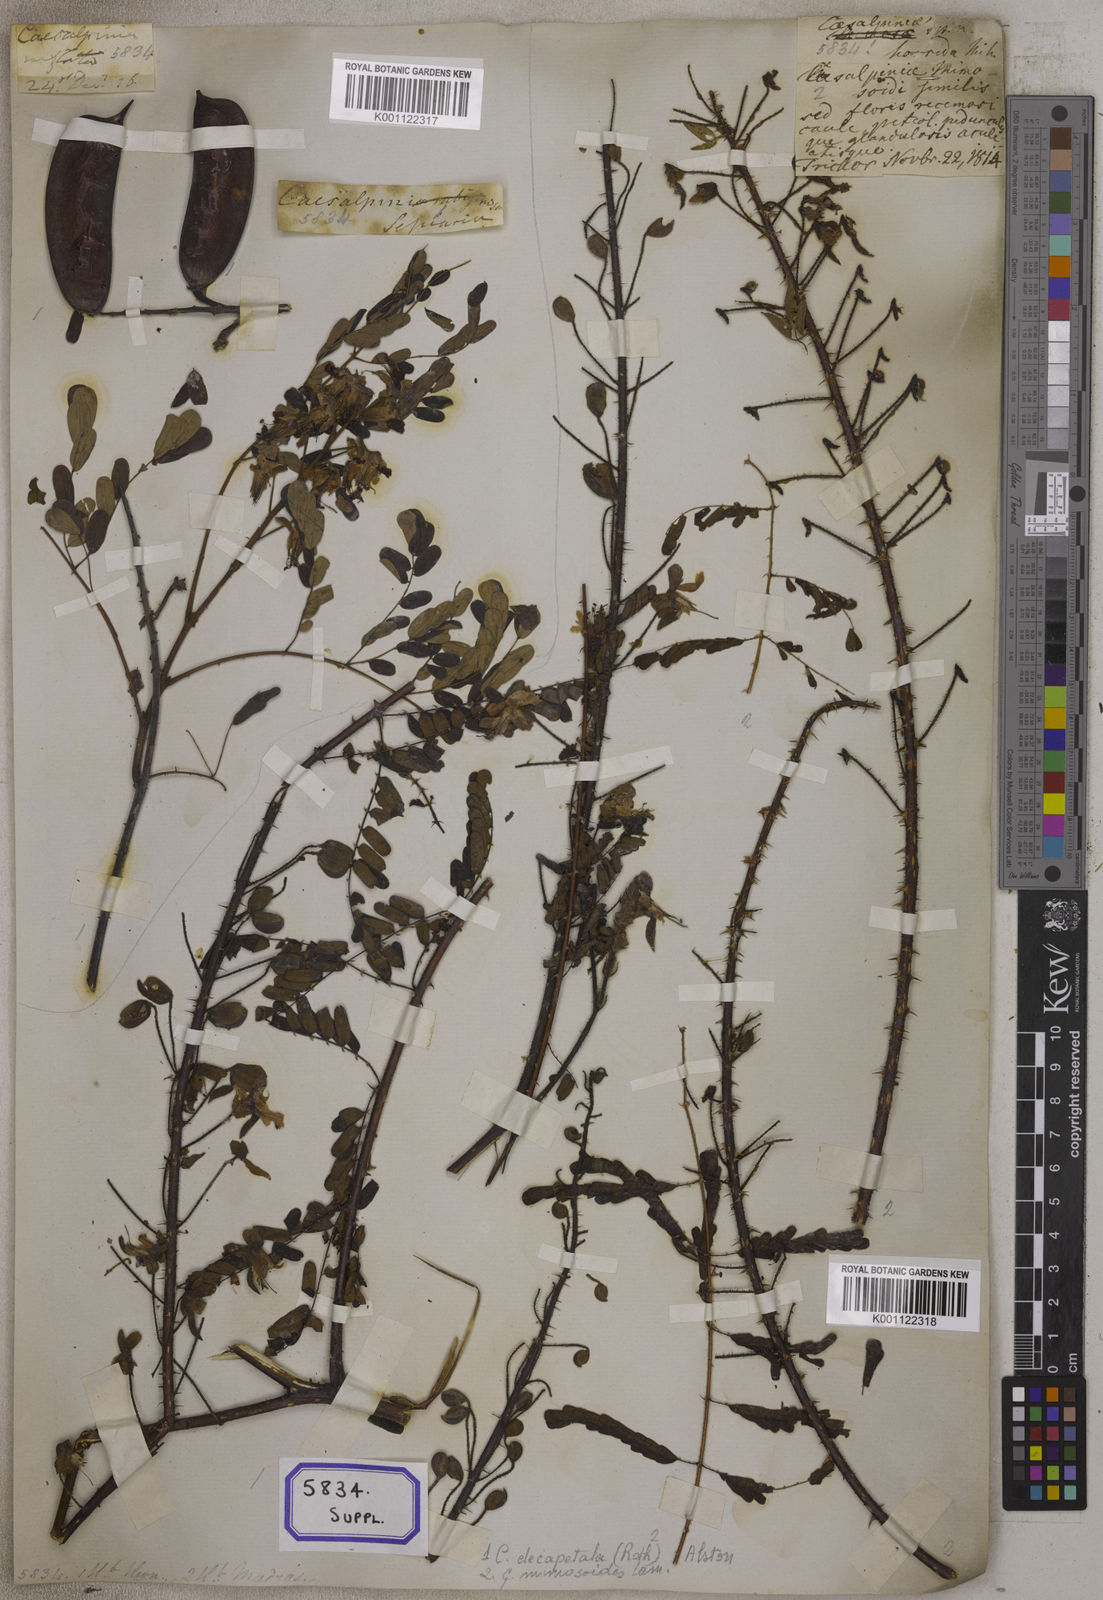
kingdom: Plantae
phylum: Tracheophyta
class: Magnoliopsida
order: Fabales
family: Fabaceae
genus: Caesalpinia
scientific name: Caesalpinia
